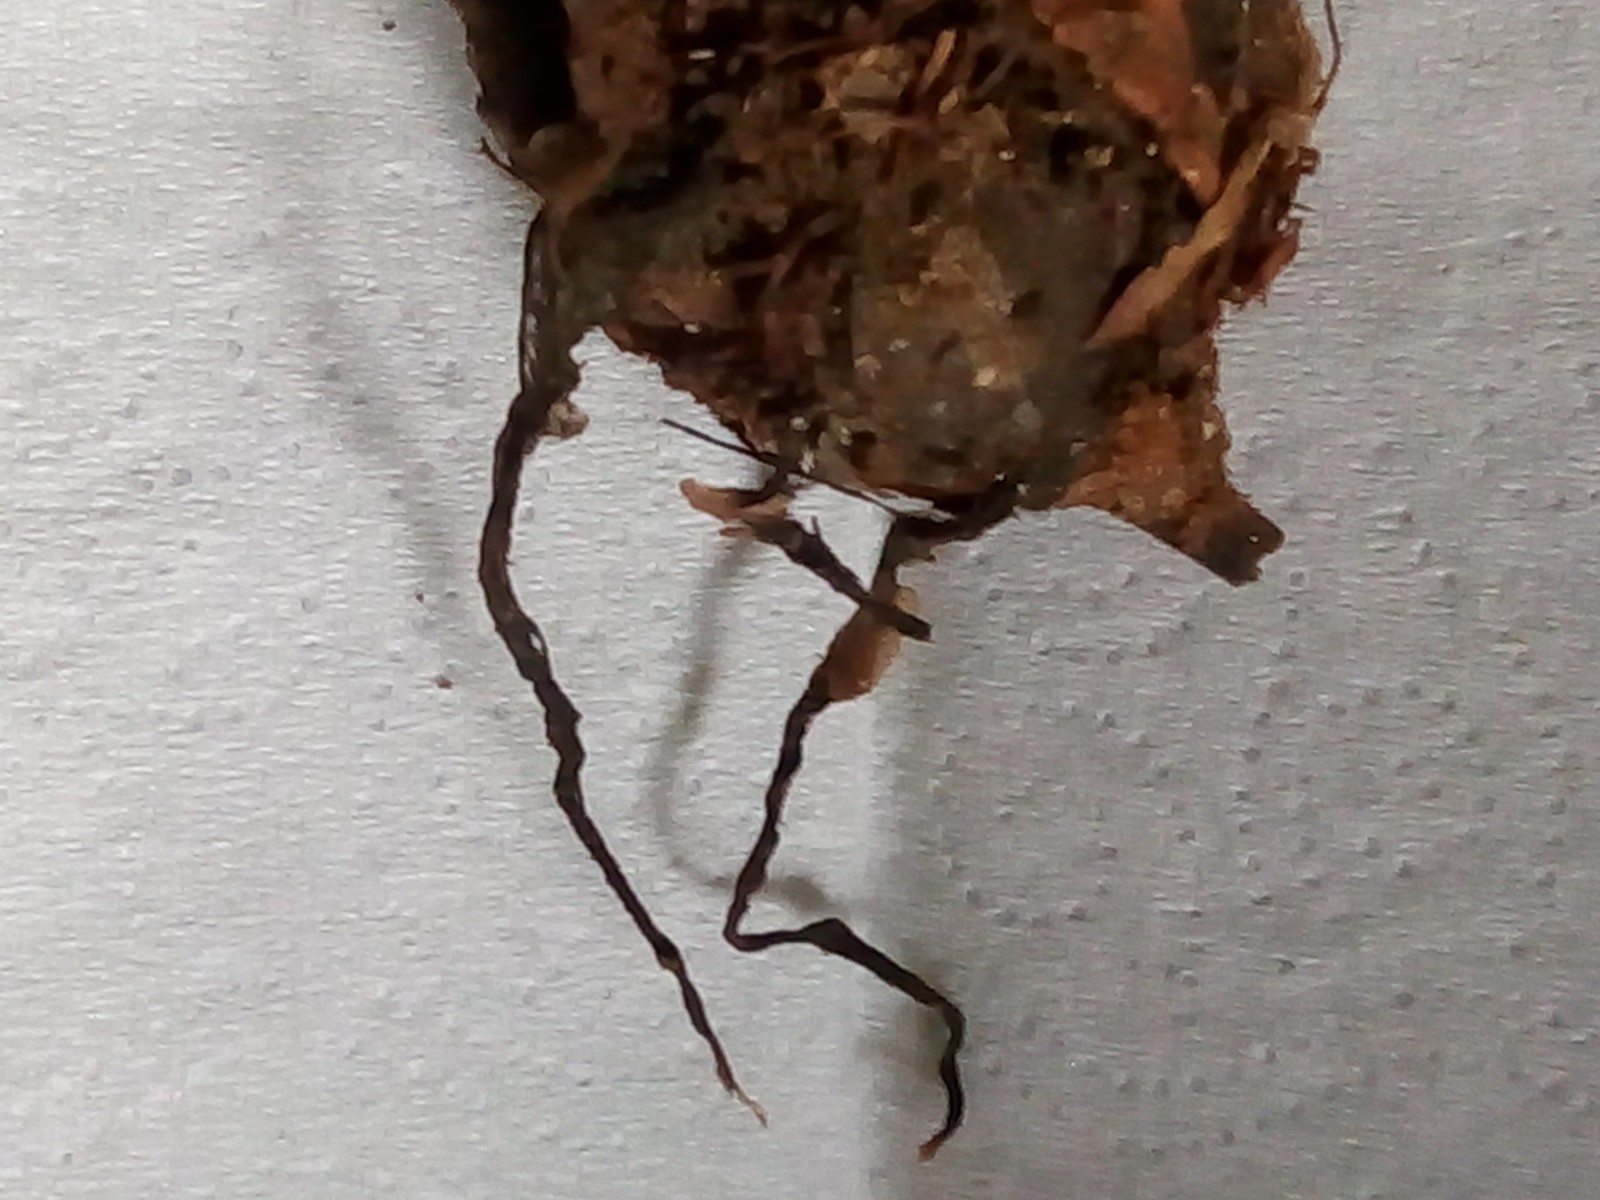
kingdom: Fungi
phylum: Ascomycota
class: Sordariomycetes
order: Xylariales
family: Xylariaceae
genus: Xylaria
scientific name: Xylaria carpophila
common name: bogskål-stødsvamp
